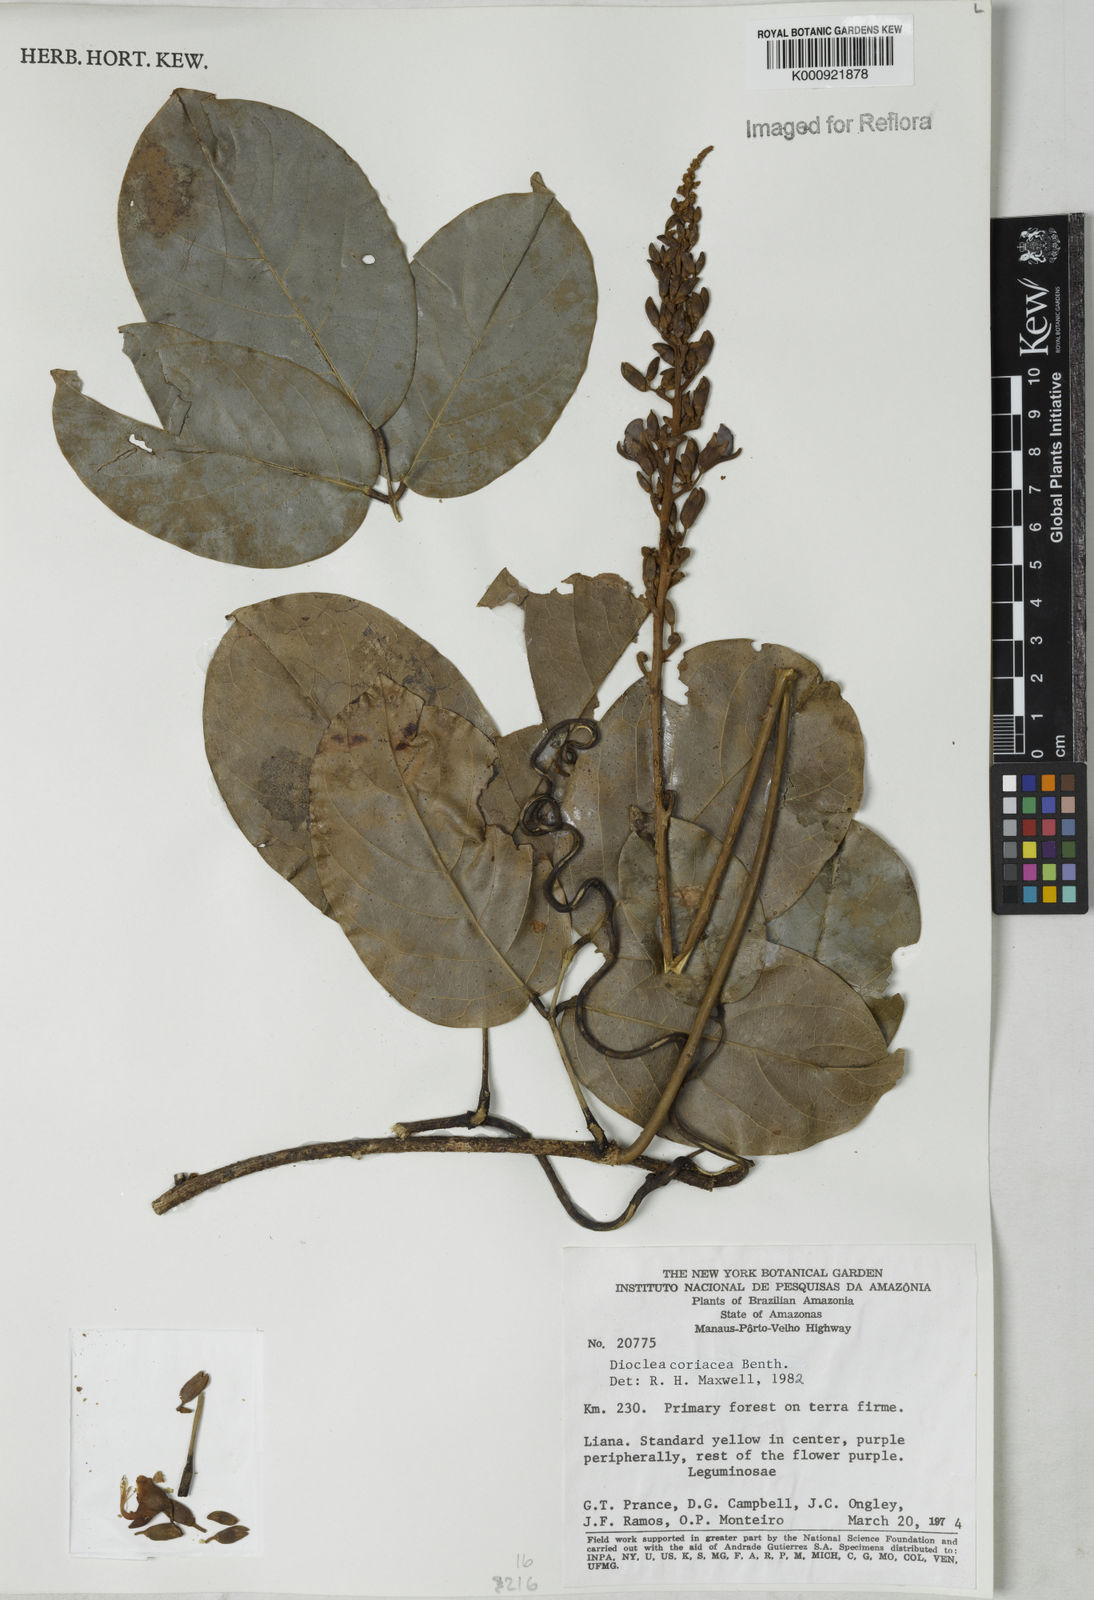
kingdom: Plantae
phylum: Tracheophyta
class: Magnoliopsida
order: Fabales
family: Fabaceae
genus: Macropsychanthus
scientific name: Macropsychanthus coriaceus
